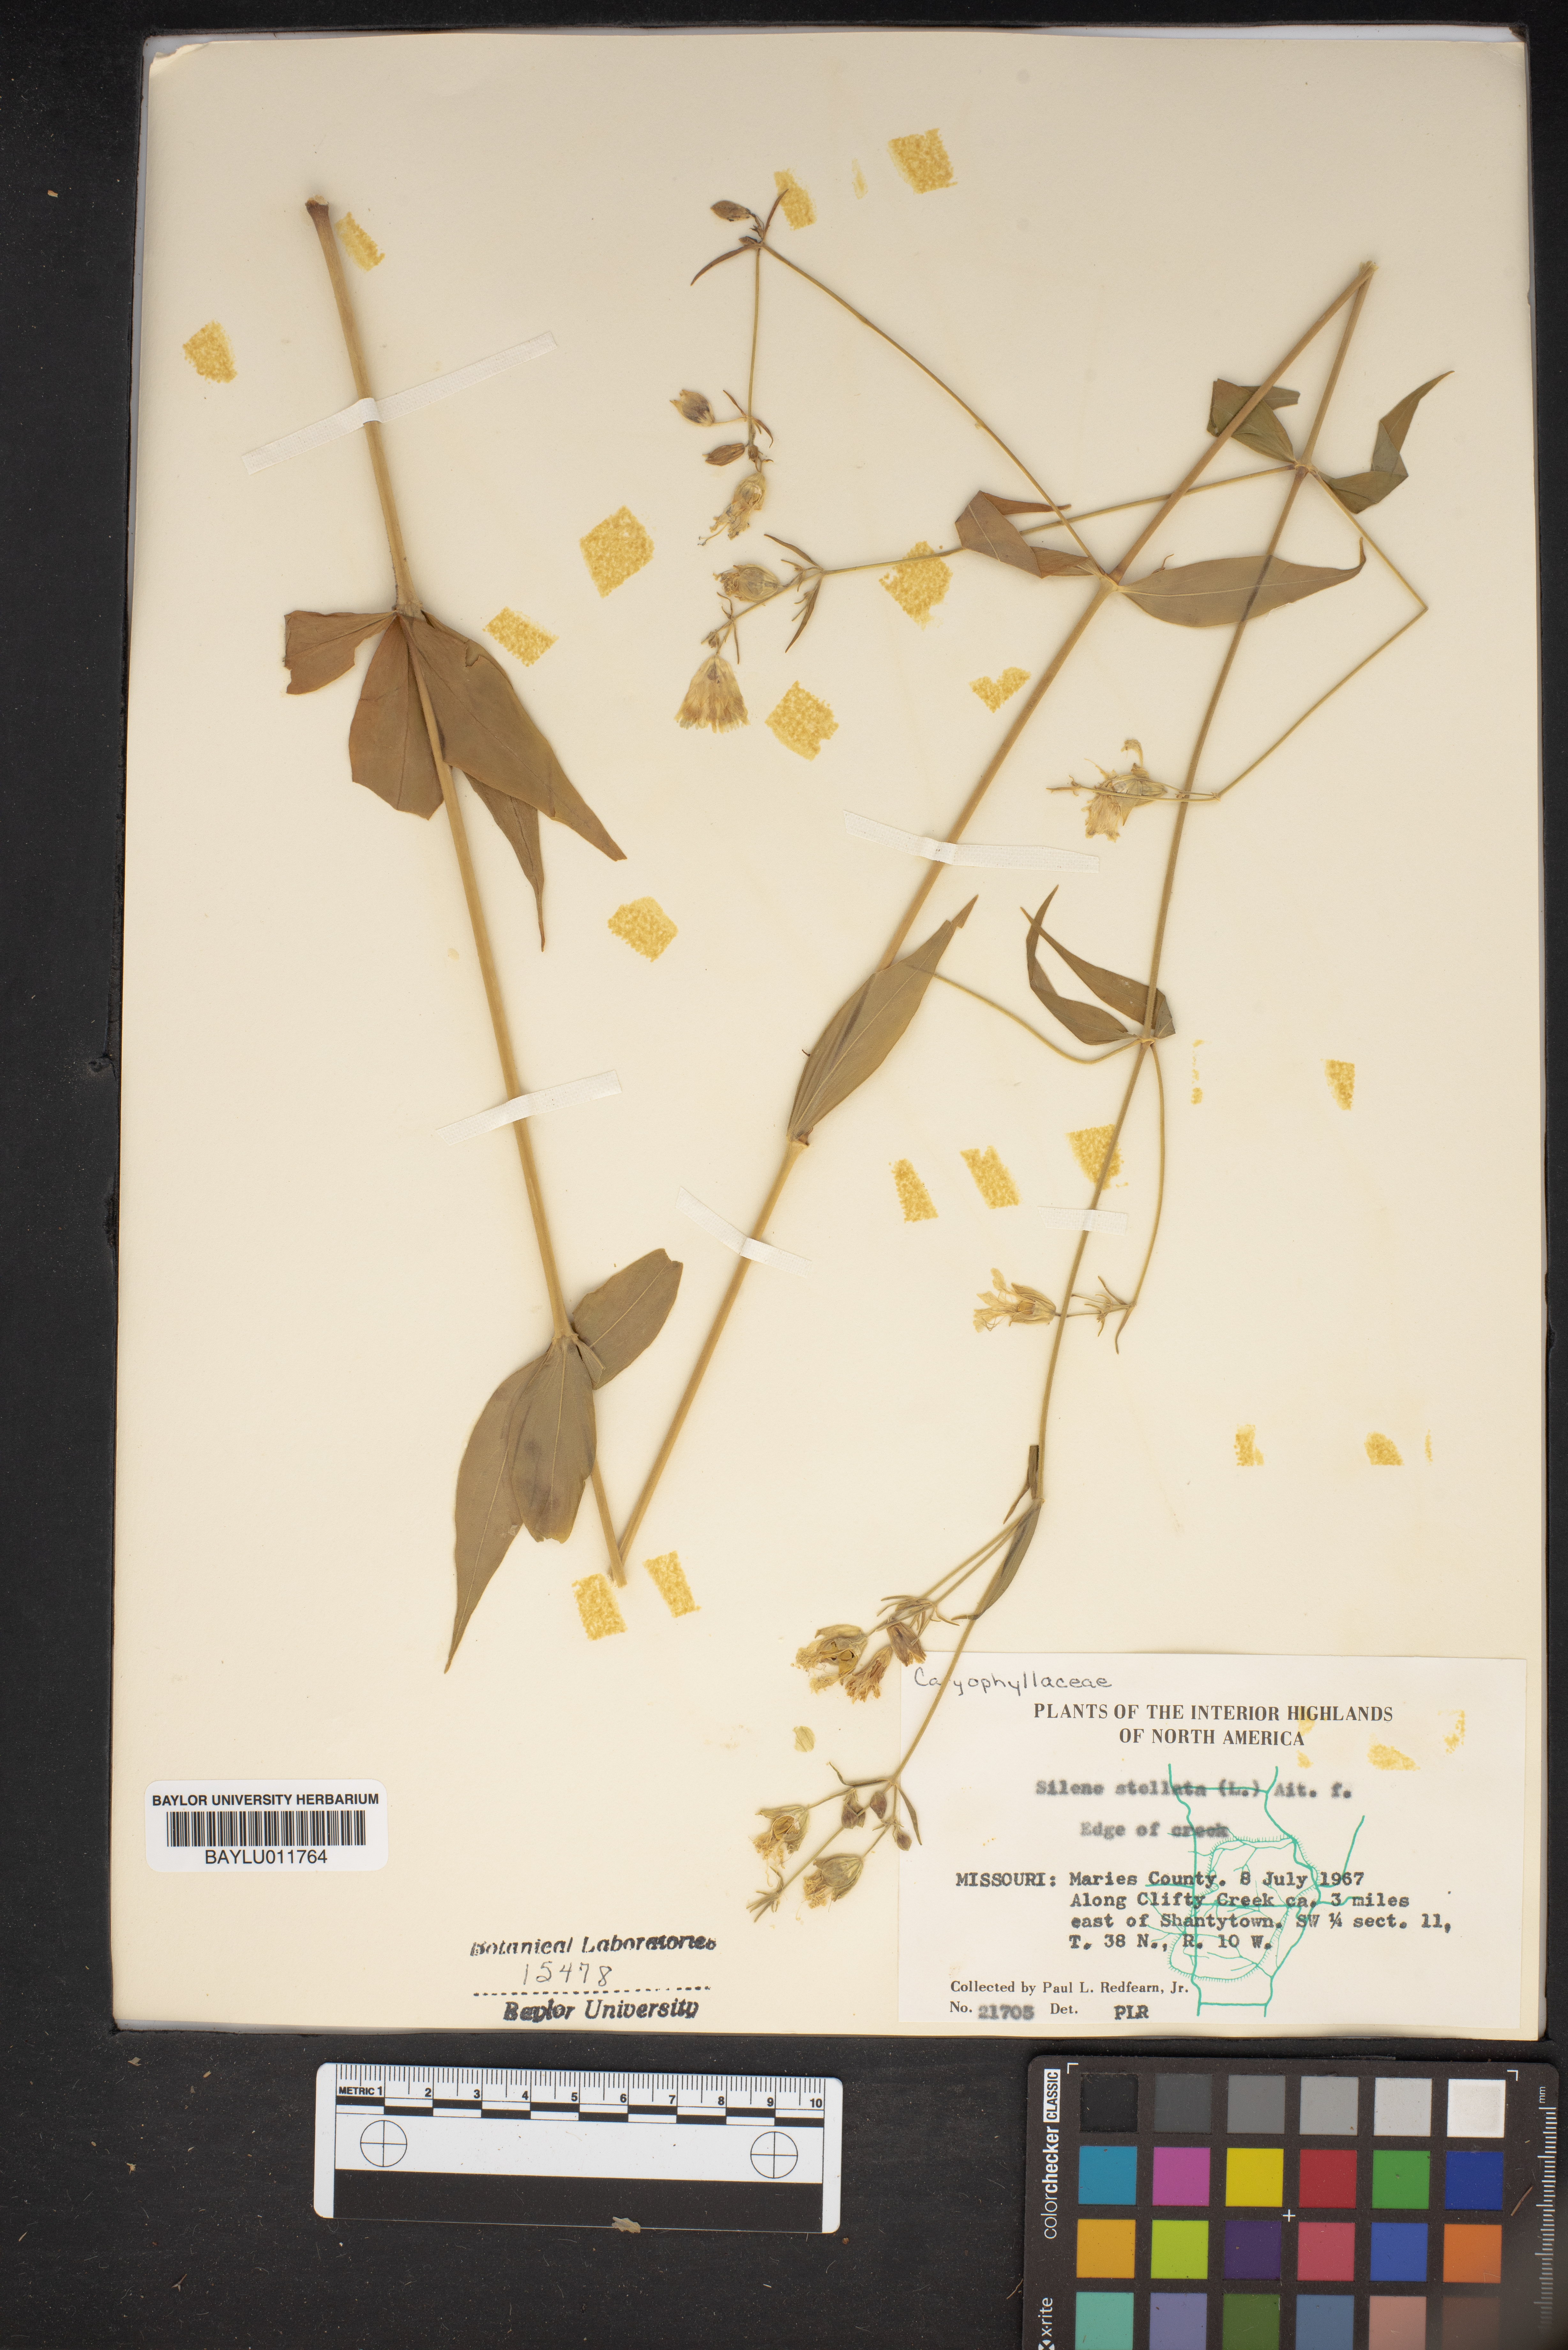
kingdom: Plantae
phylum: Tracheophyta
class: Magnoliopsida
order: Caryophyllales
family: Caryophyllaceae
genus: Silene
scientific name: Silene stellata
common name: Starry campion
